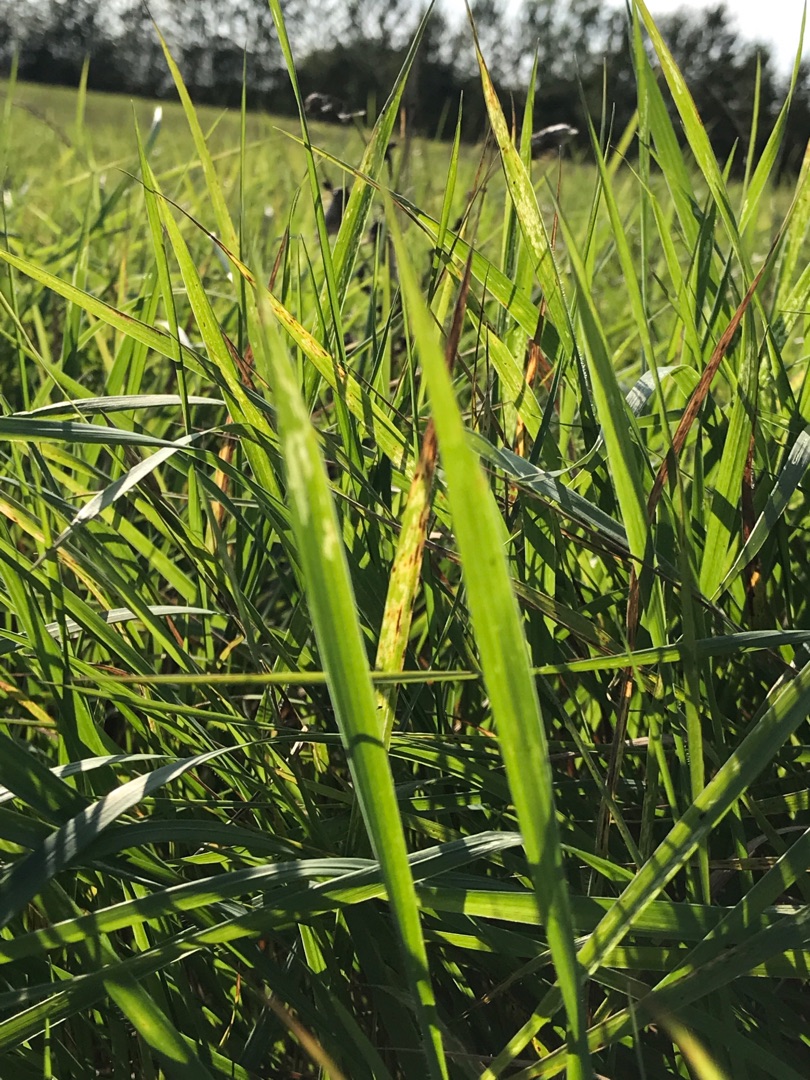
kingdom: Plantae
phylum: Tracheophyta
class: Liliopsida
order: Poales
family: Poaceae
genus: Elymus
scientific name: Elymus repens
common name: Almindelig kvik
